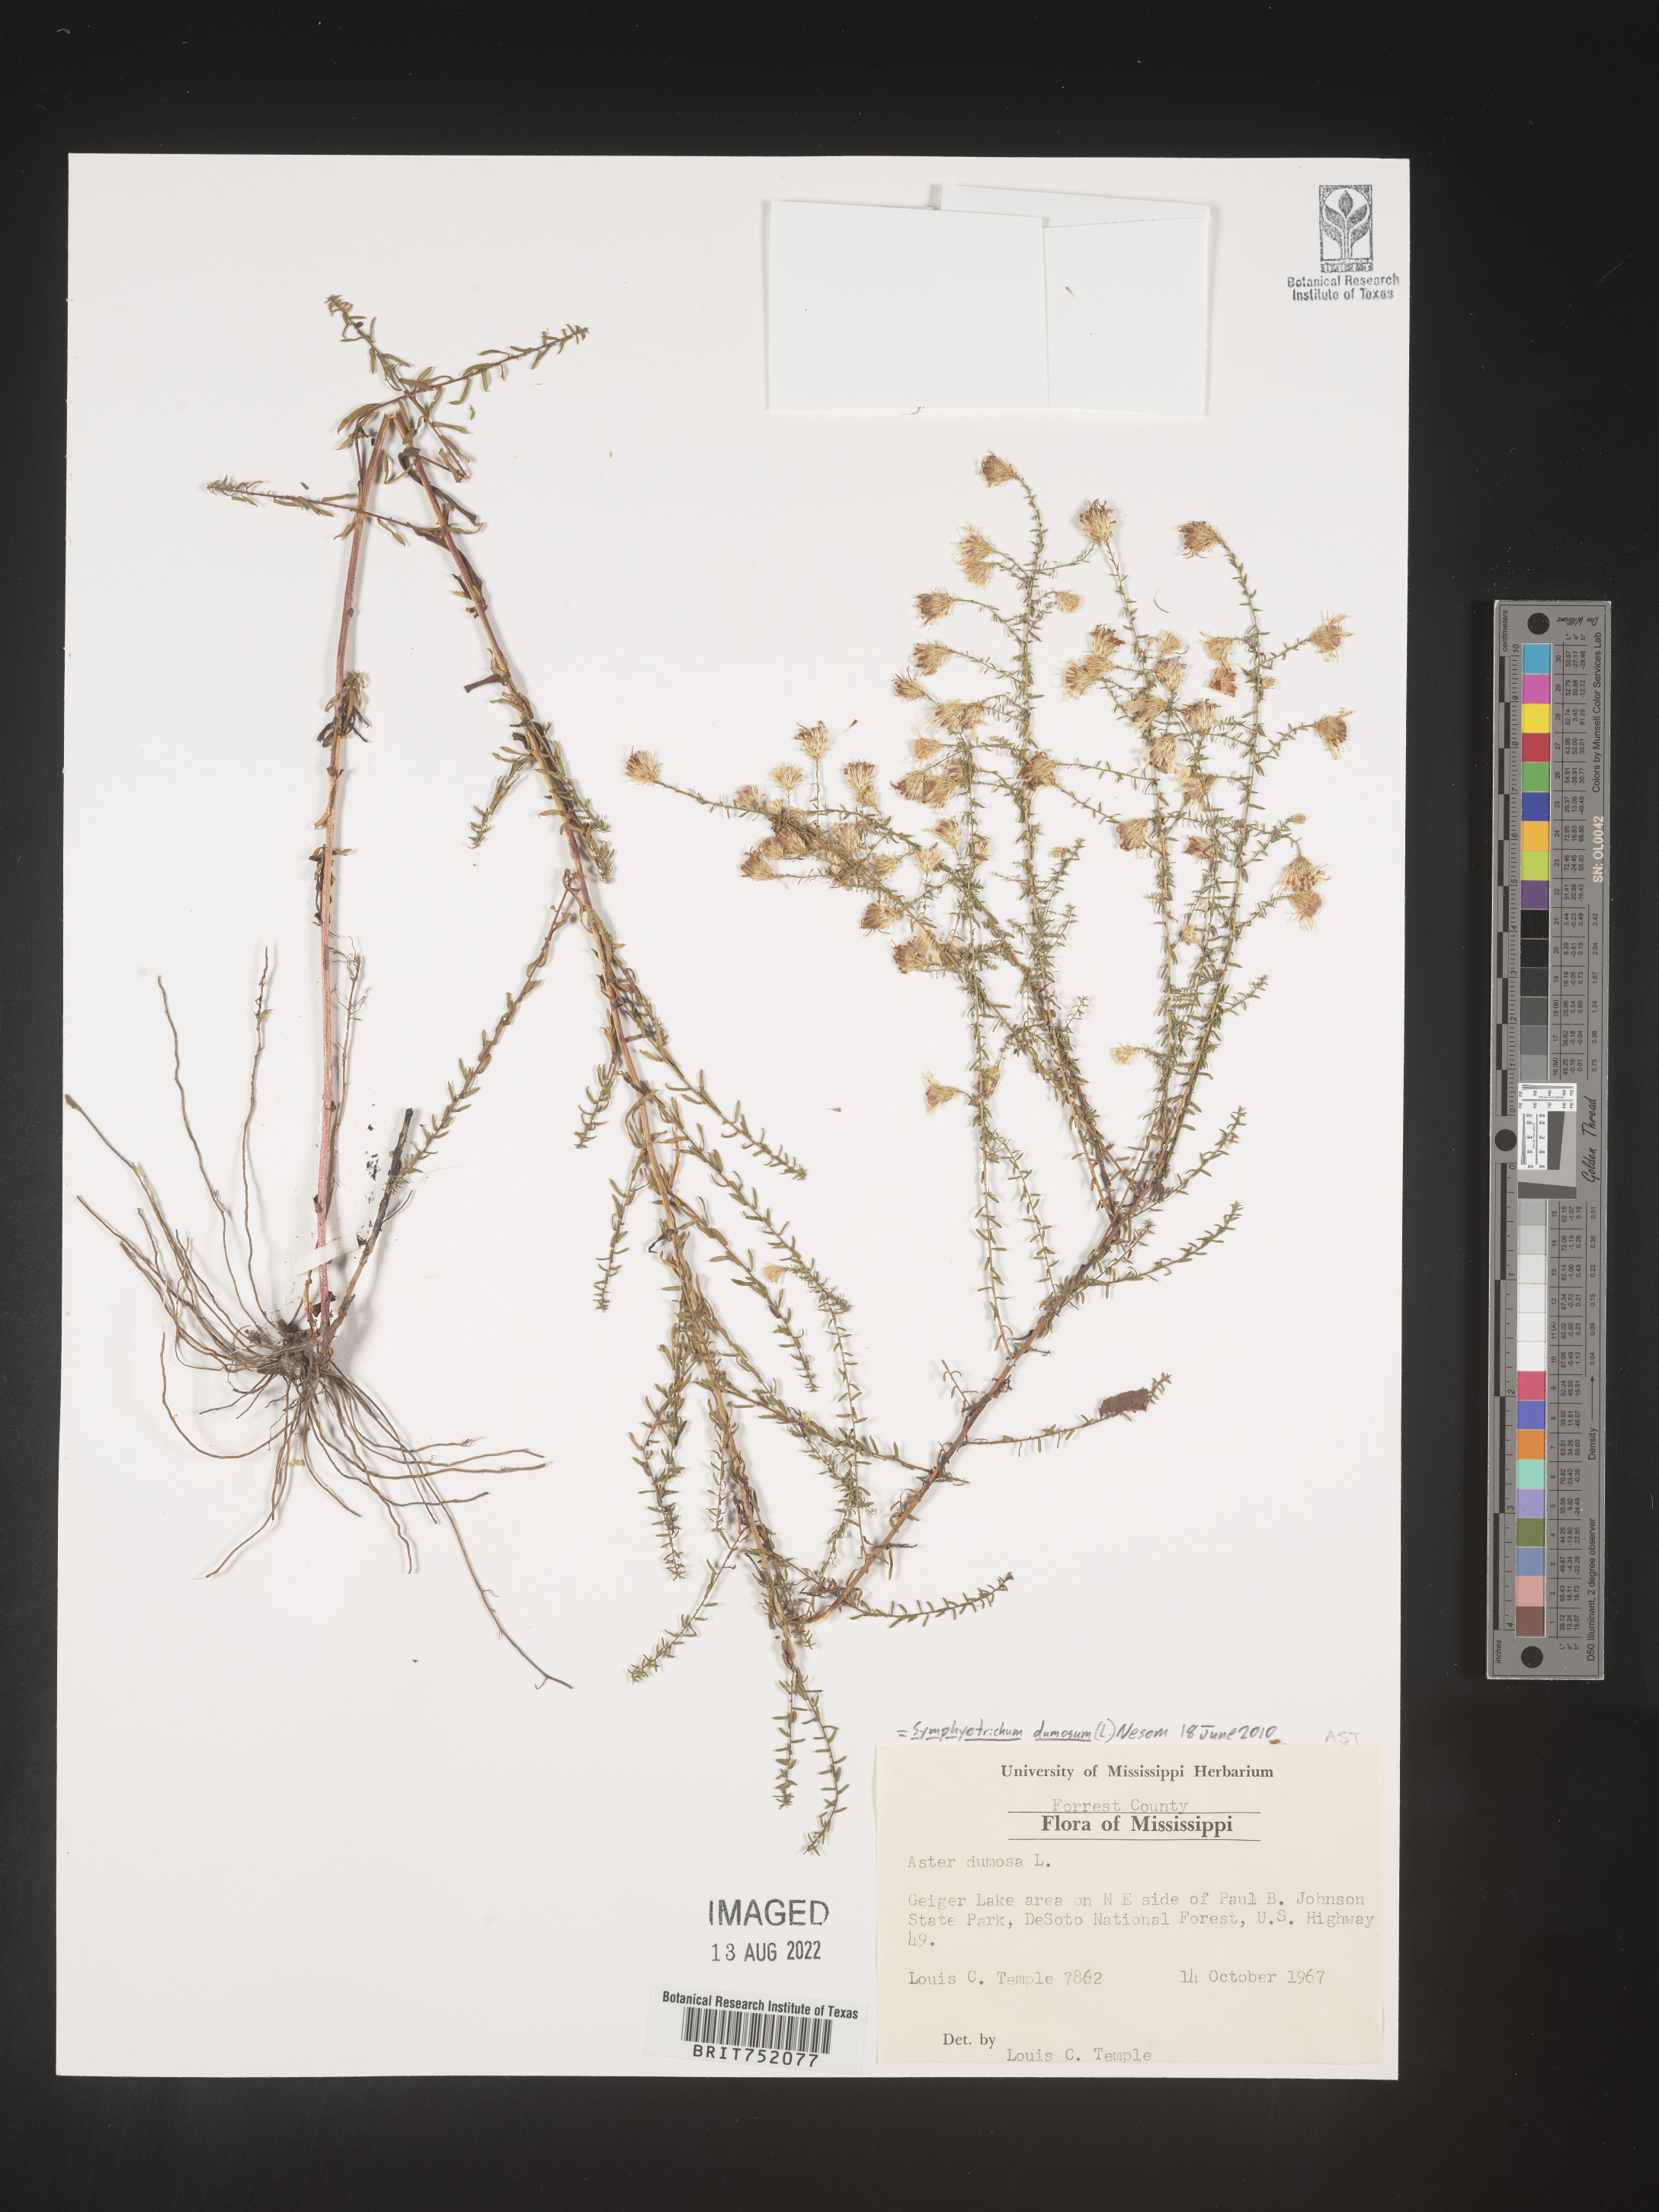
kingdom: Plantae
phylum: Tracheophyta
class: Magnoliopsida
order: Asterales
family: Asteraceae
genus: Symphyotrichum
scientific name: Symphyotrichum dumosum
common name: Bushy aster
